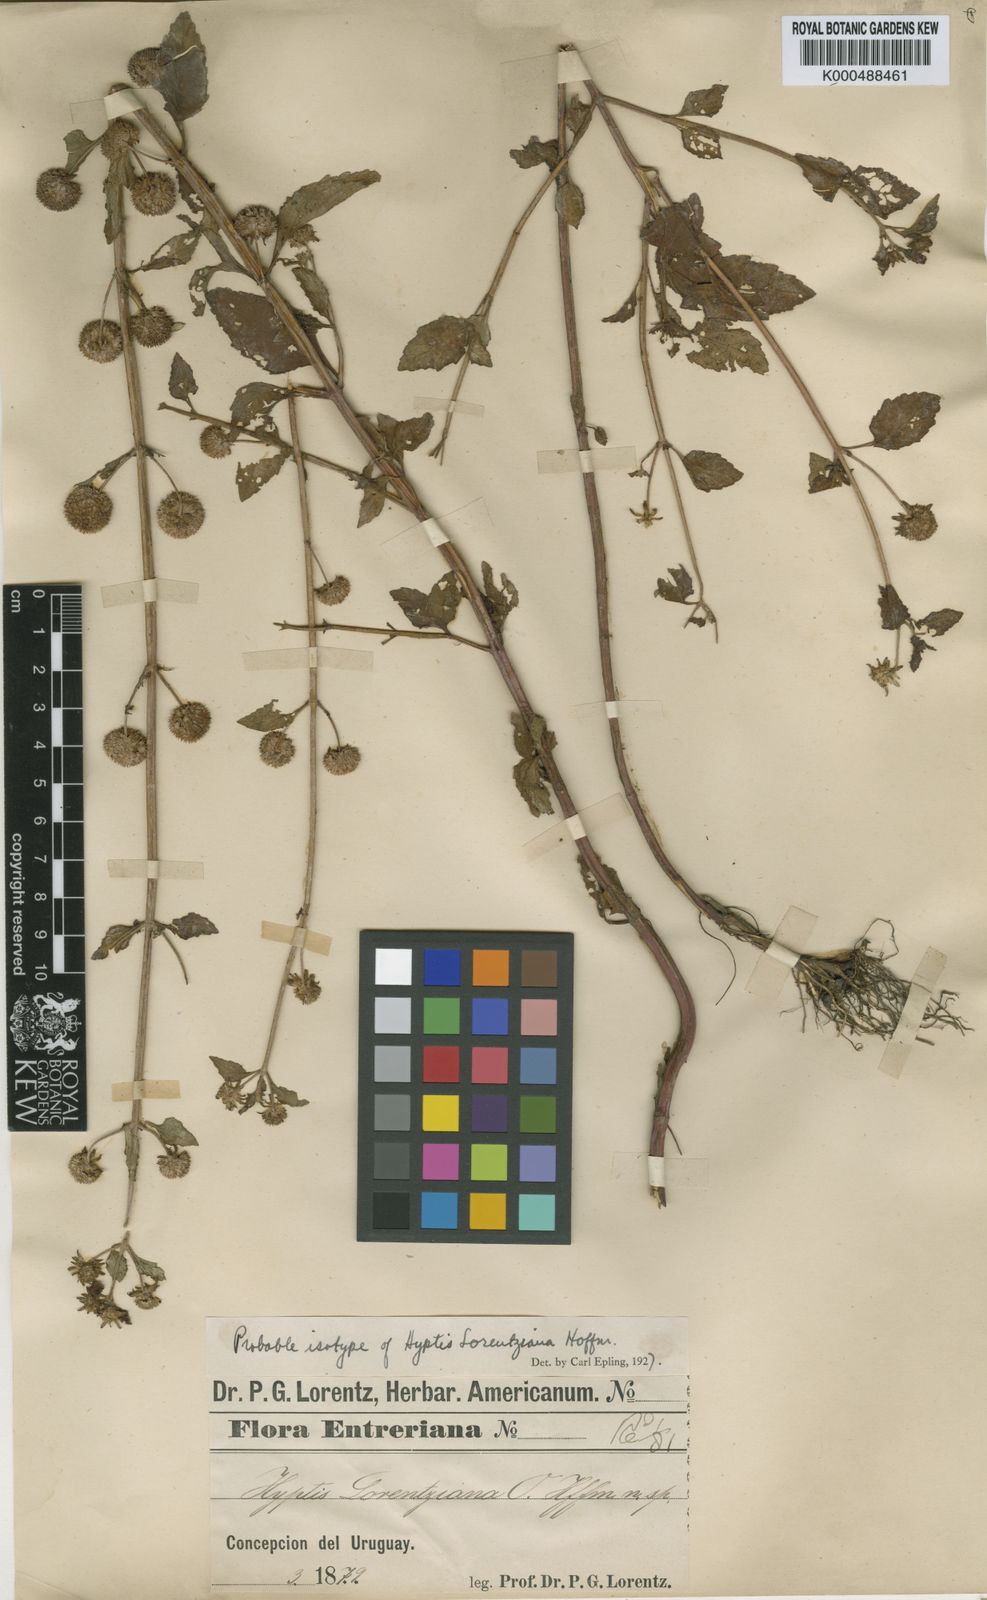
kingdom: Plantae
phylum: Tracheophyta
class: Magnoliopsida
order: Lamiales
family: Lamiaceae
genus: Hyptis
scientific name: Hyptis lorentziana
